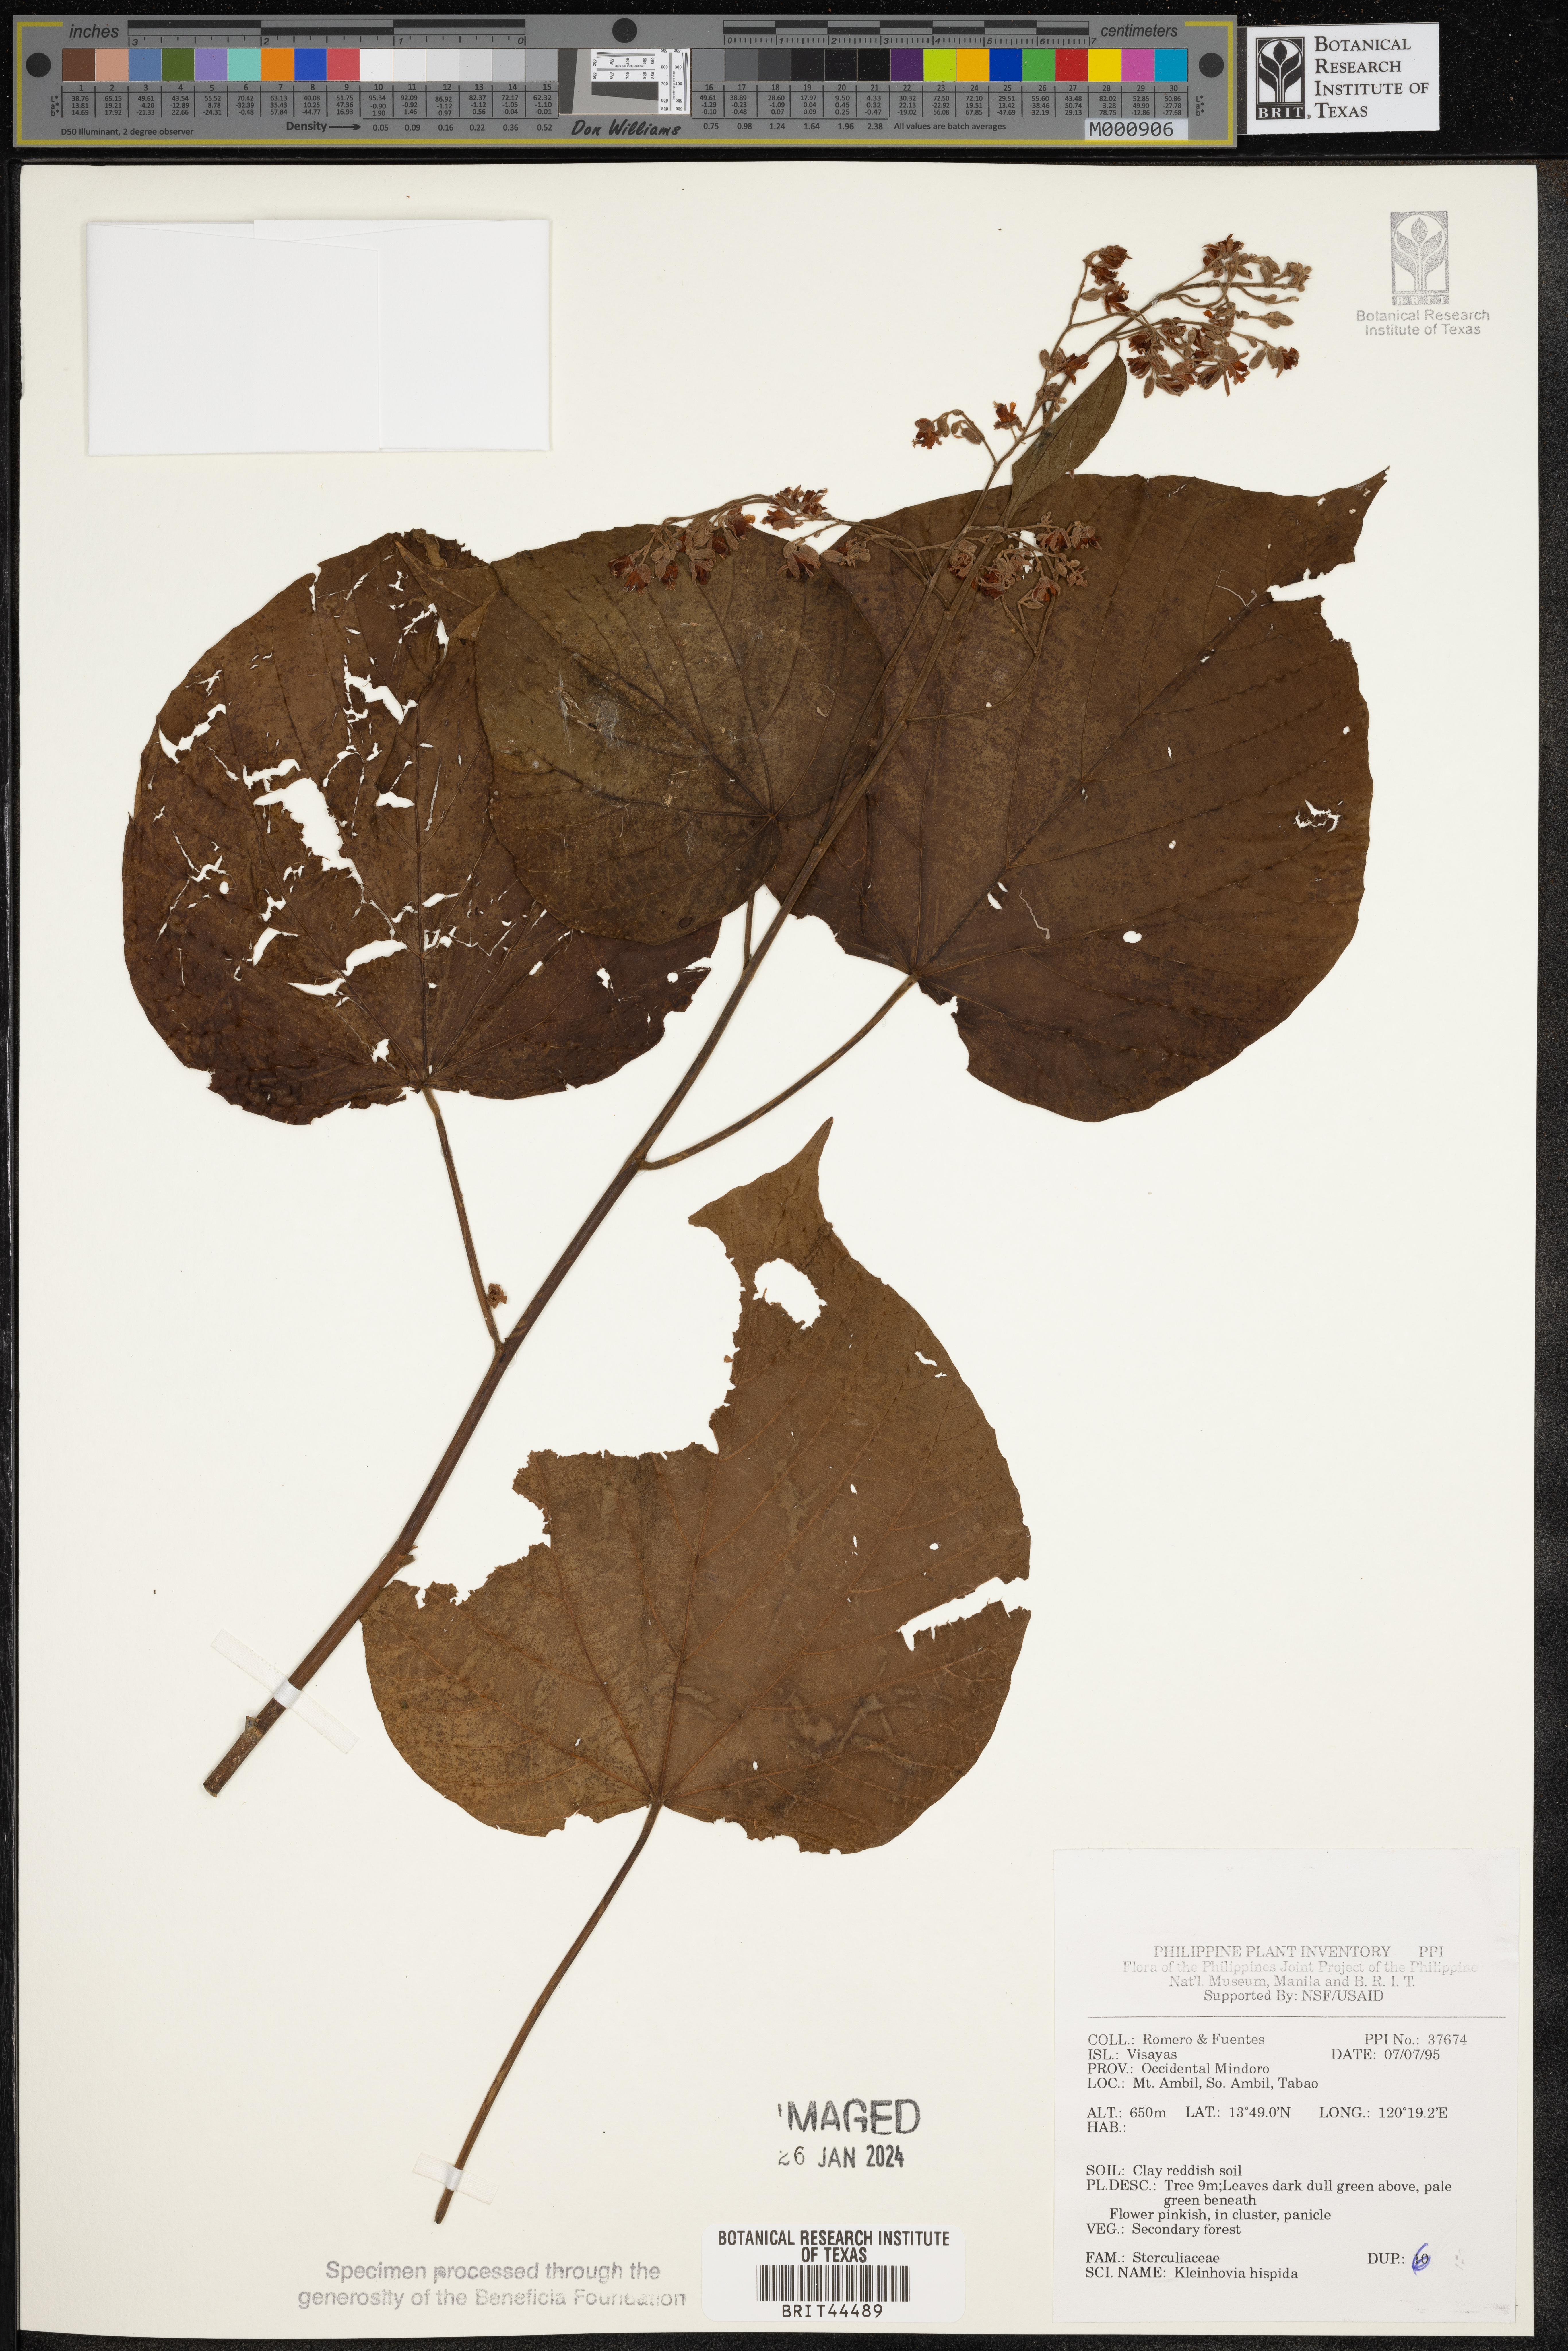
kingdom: Plantae
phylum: Tracheophyta
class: Magnoliopsida
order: Malvales
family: Malvaceae
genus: Kleinhovia
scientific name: Kleinhovia hospita
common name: Guest-tree
